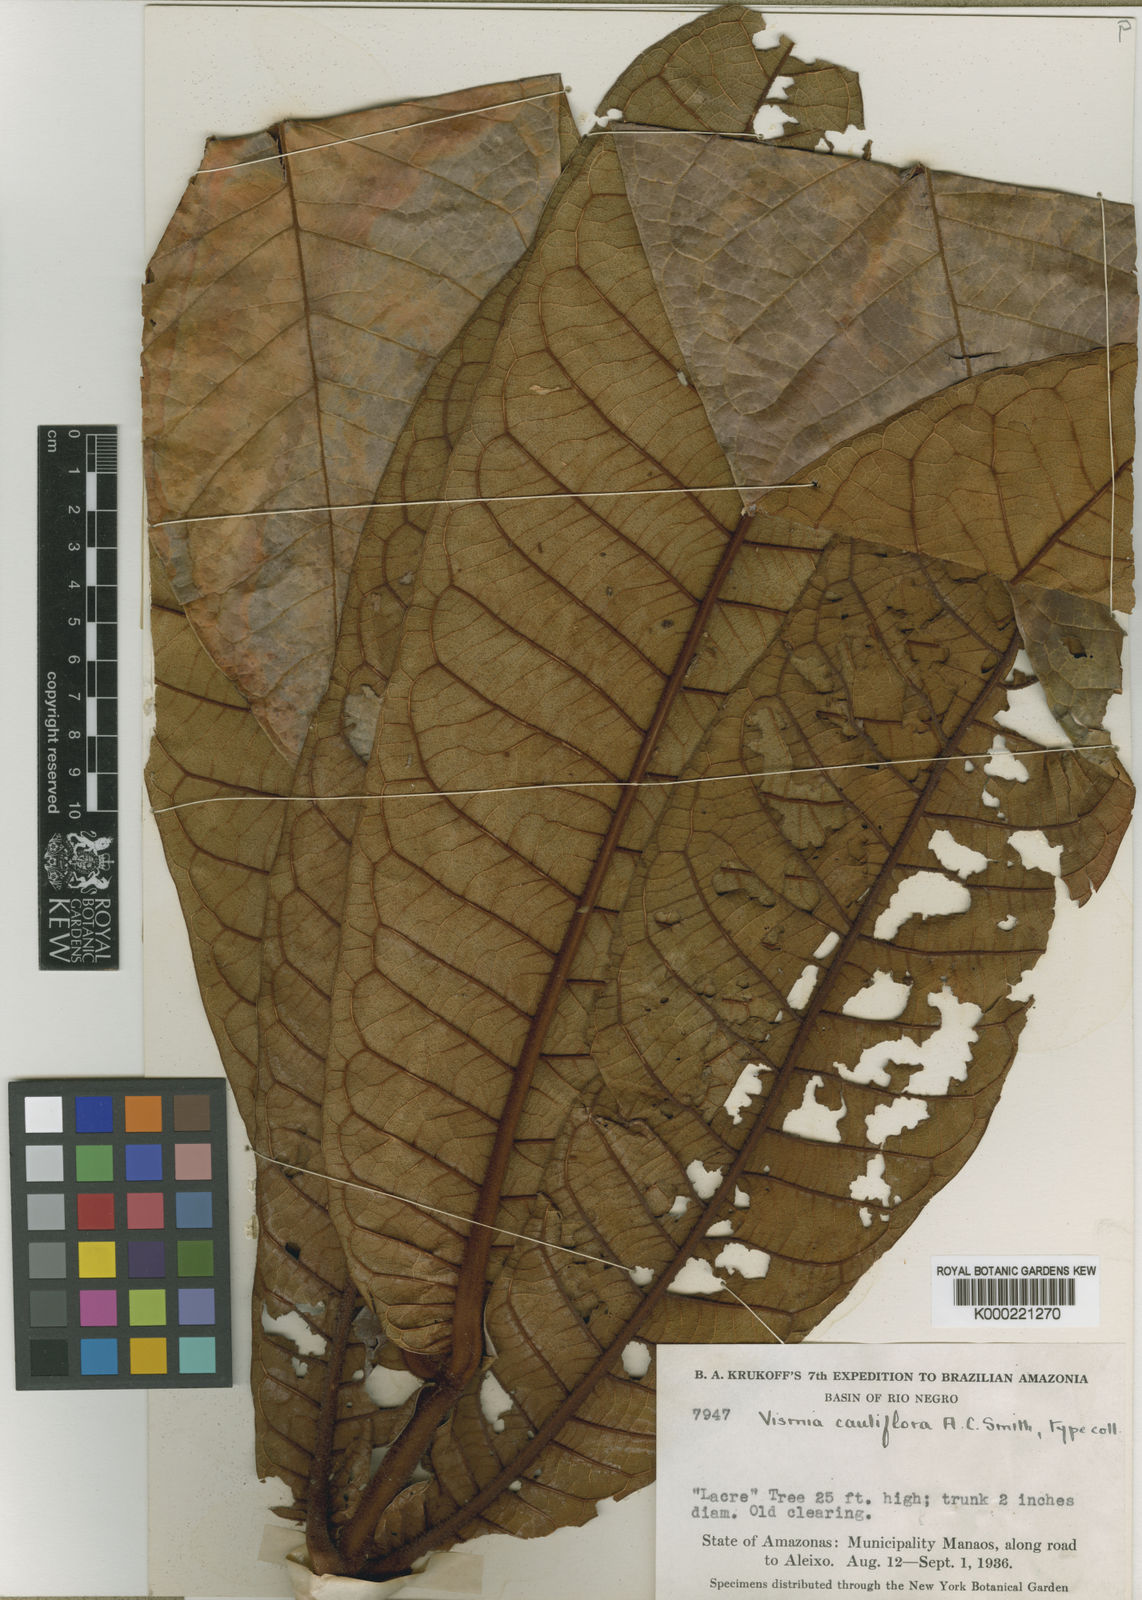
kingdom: Plantae
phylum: Tracheophyta
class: Magnoliopsida
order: Malpighiales
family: Hypericaceae
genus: Vismia
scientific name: Vismia cauliflora
